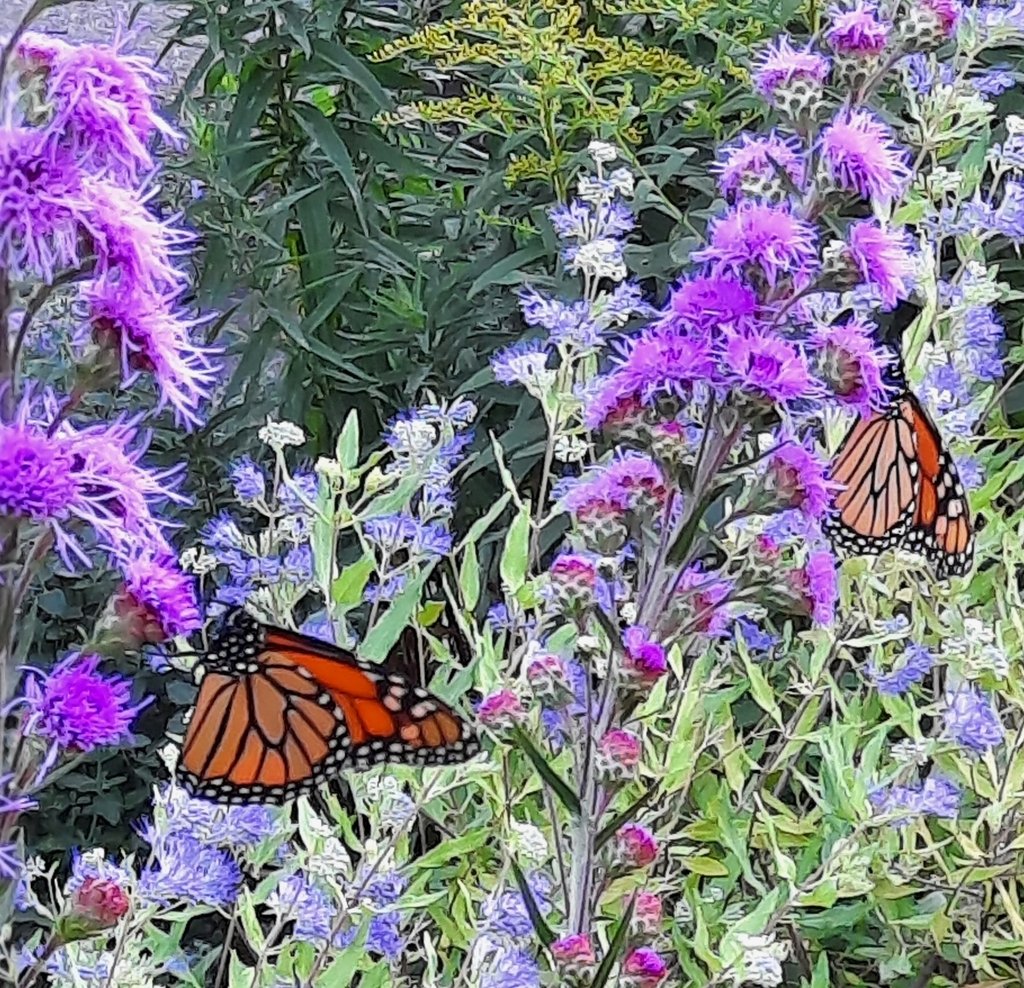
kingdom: Animalia
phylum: Arthropoda
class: Insecta
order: Lepidoptera
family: Nymphalidae
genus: Danaus
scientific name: Danaus plexippus
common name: Monarch
